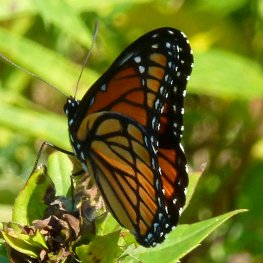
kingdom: Animalia
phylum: Arthropoda
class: Insecta
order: Lepidoptera
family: Nymphalidae
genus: Limenitis
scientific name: Limenitis archippus
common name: Viceroy
